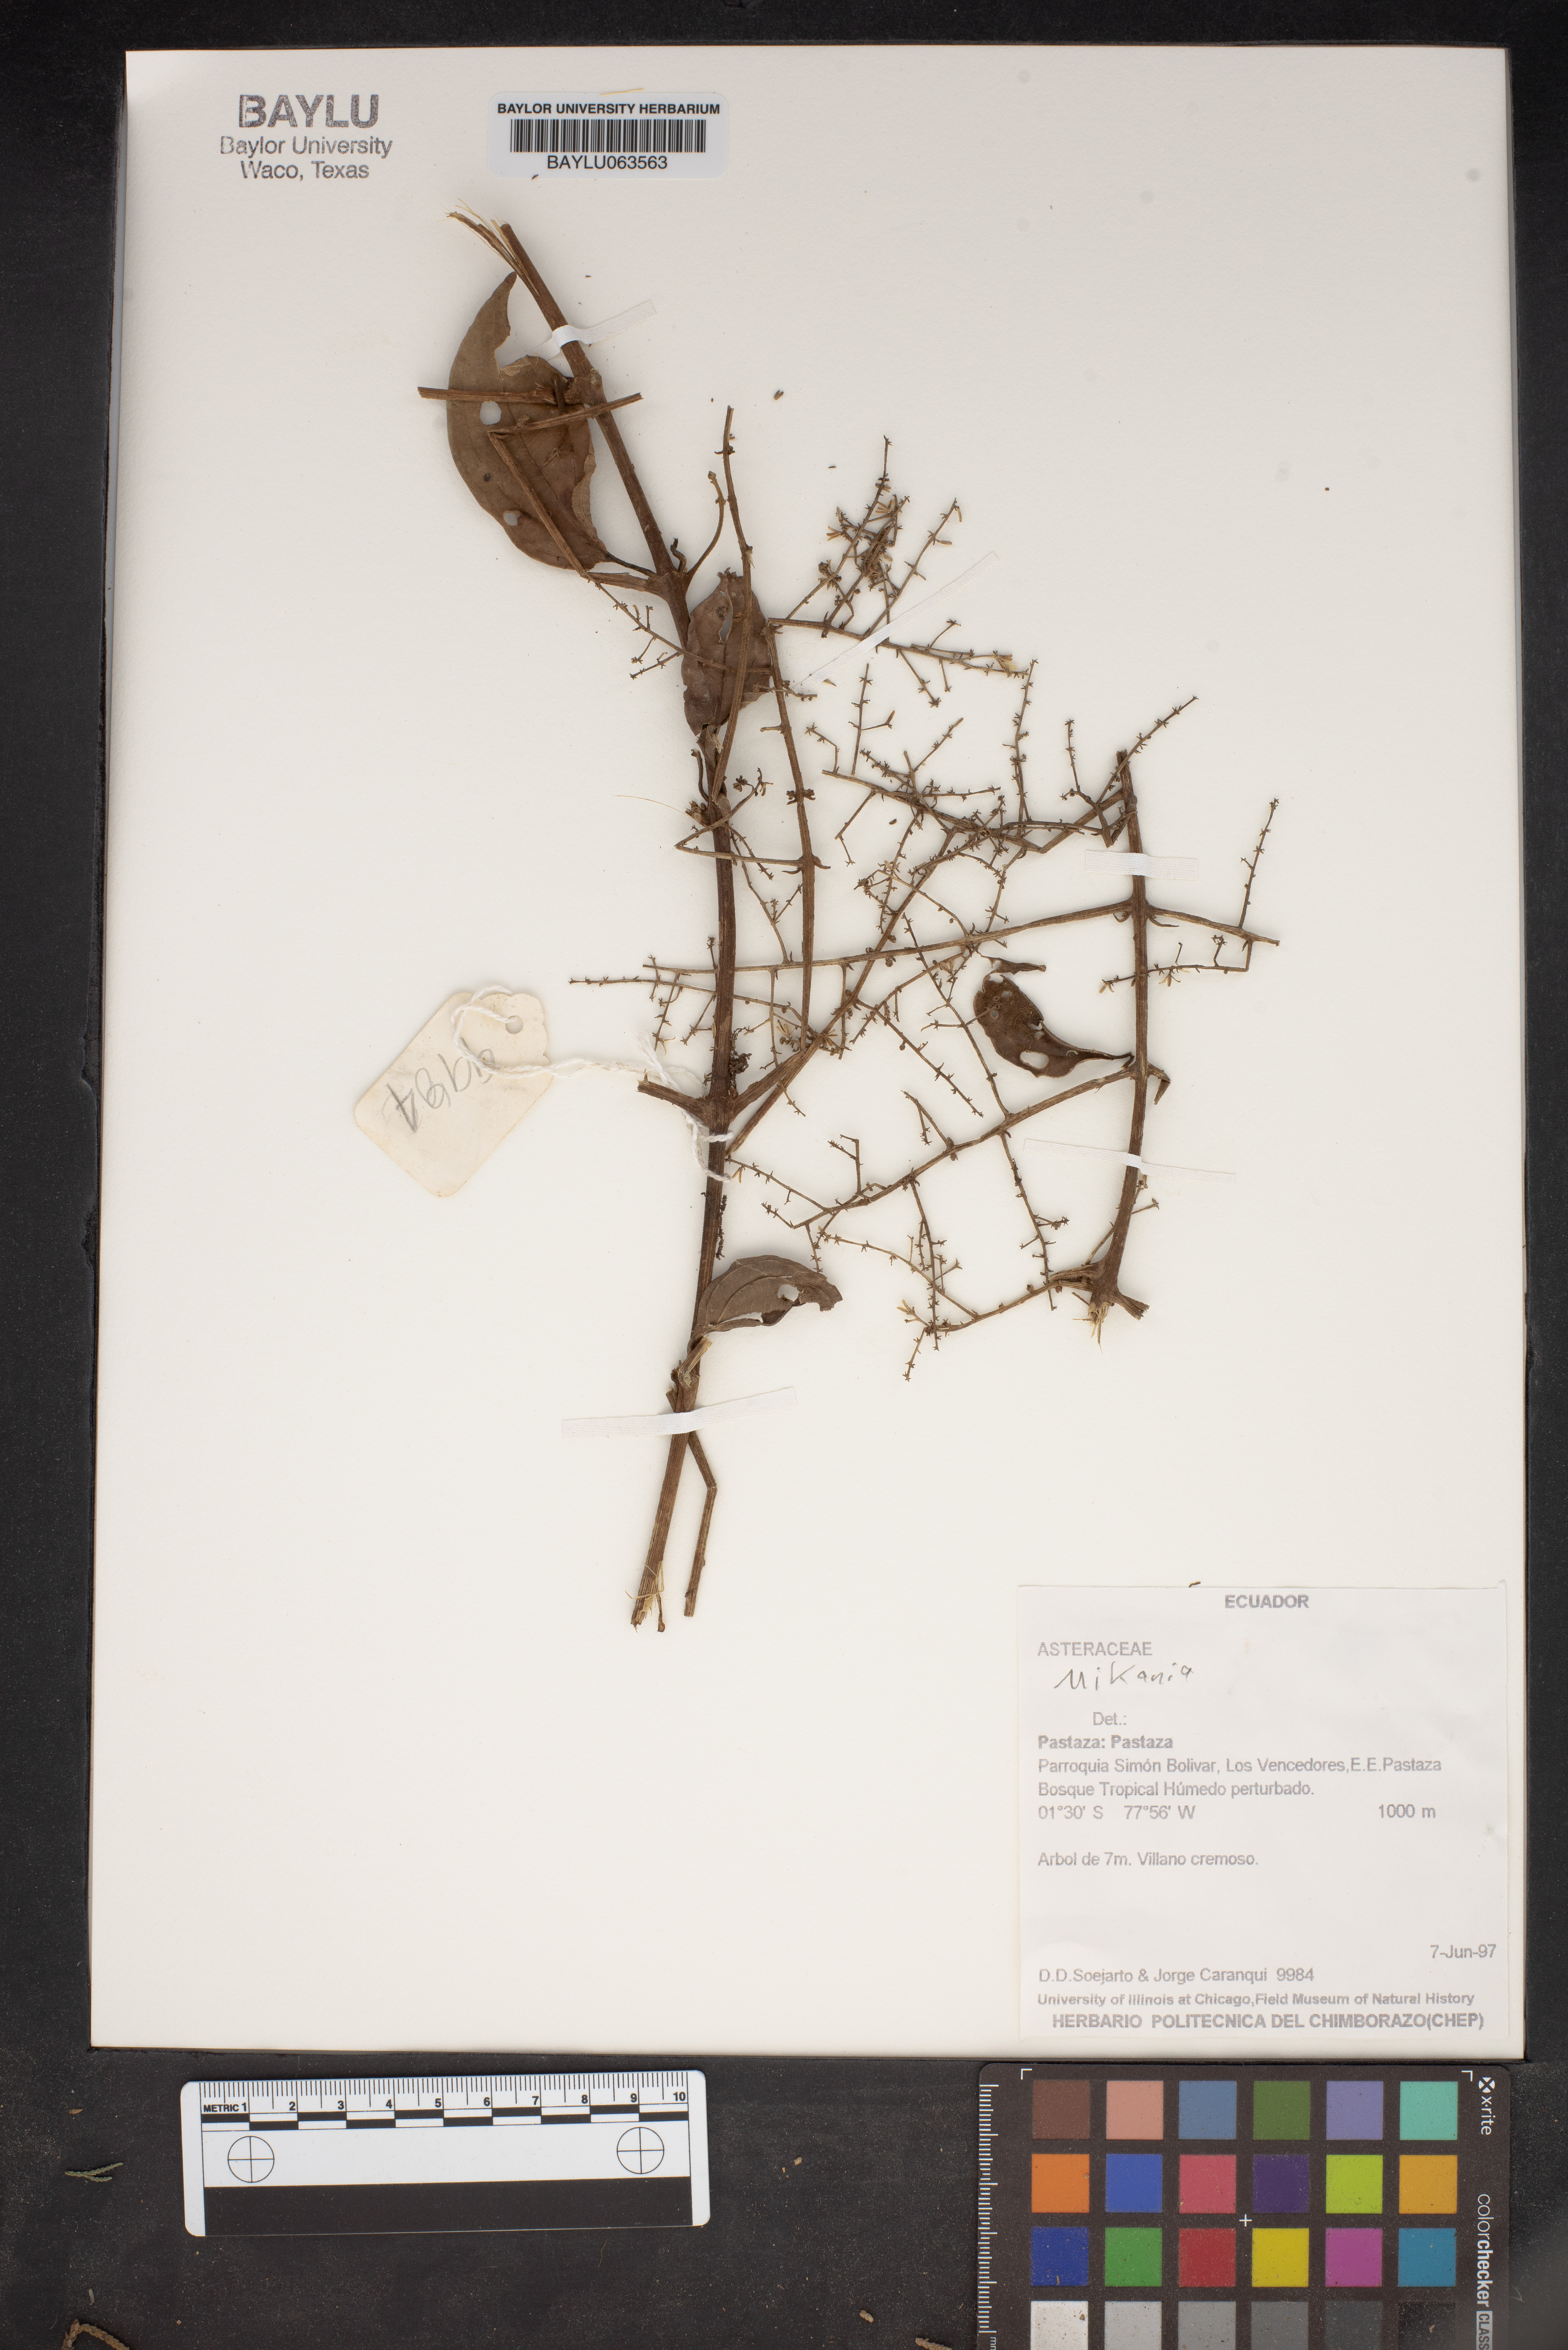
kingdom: Plantae
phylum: Tracheophyta
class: Magnoliopsida
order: Asterales
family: Asteraceae
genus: Mikania
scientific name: Mikania
